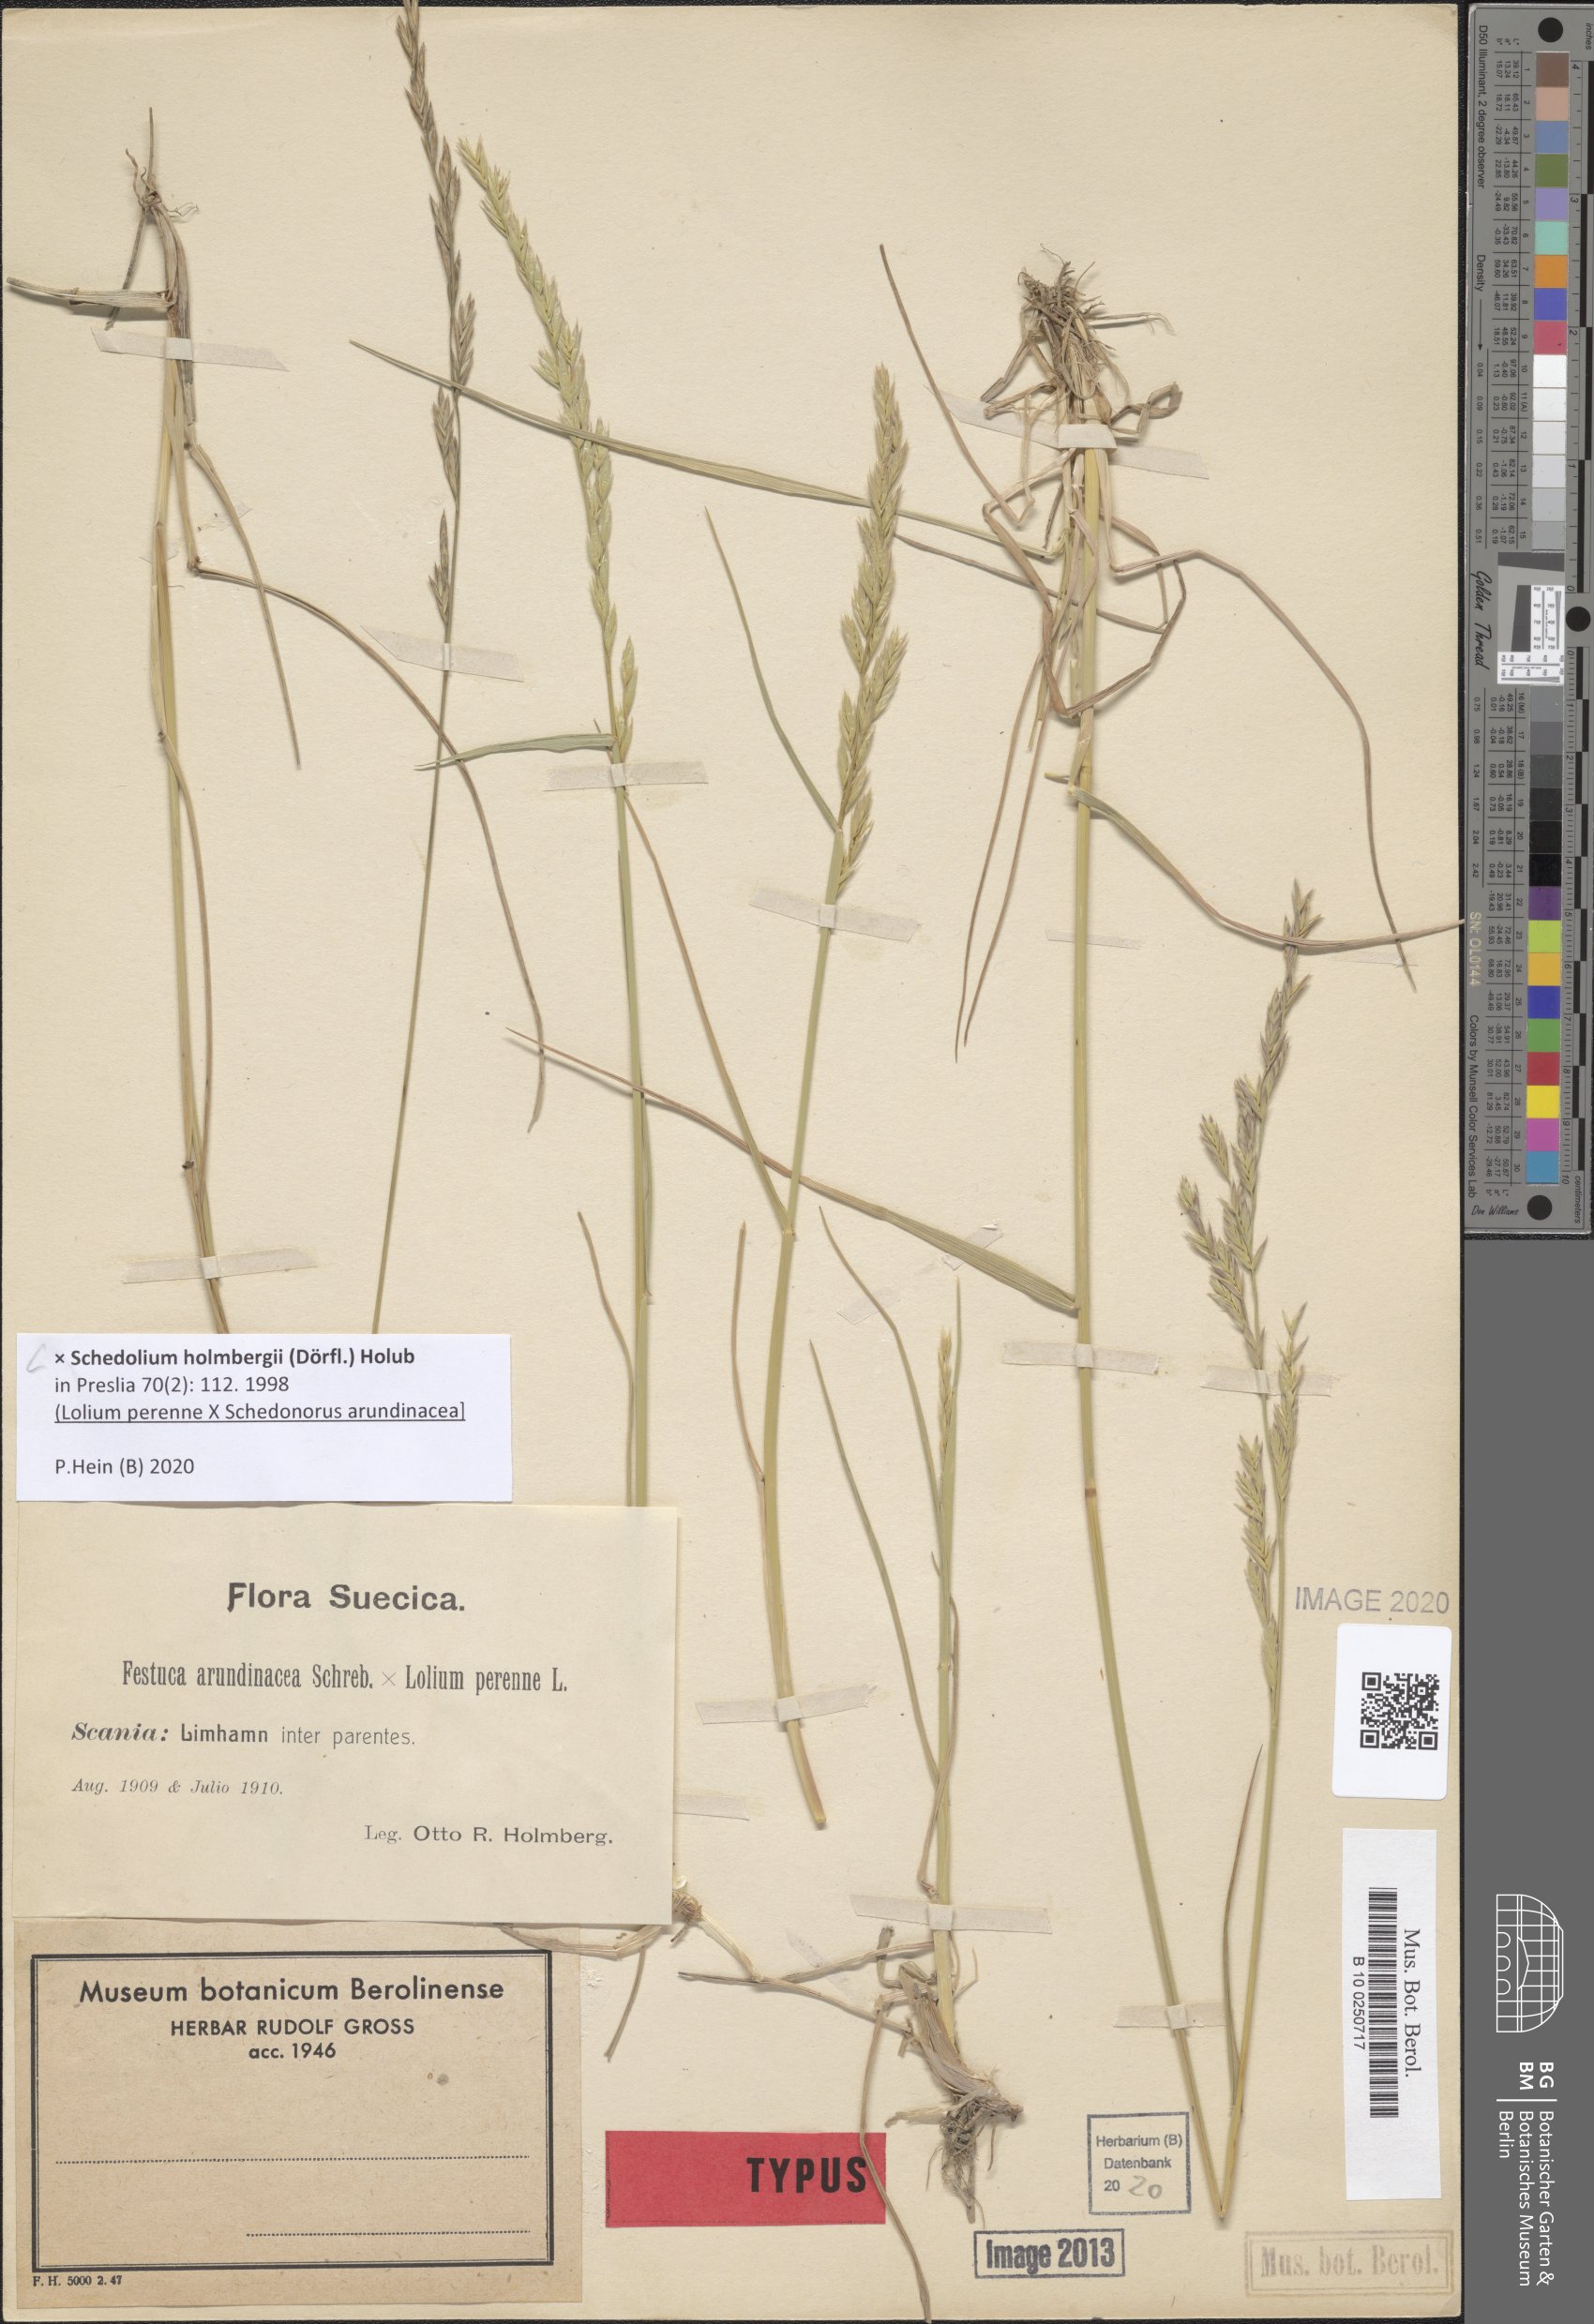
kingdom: Plantae
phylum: Tracheophyta
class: Liliopsida
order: Poales
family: Poaceae
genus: Lolium
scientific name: Lolium holmbergii
